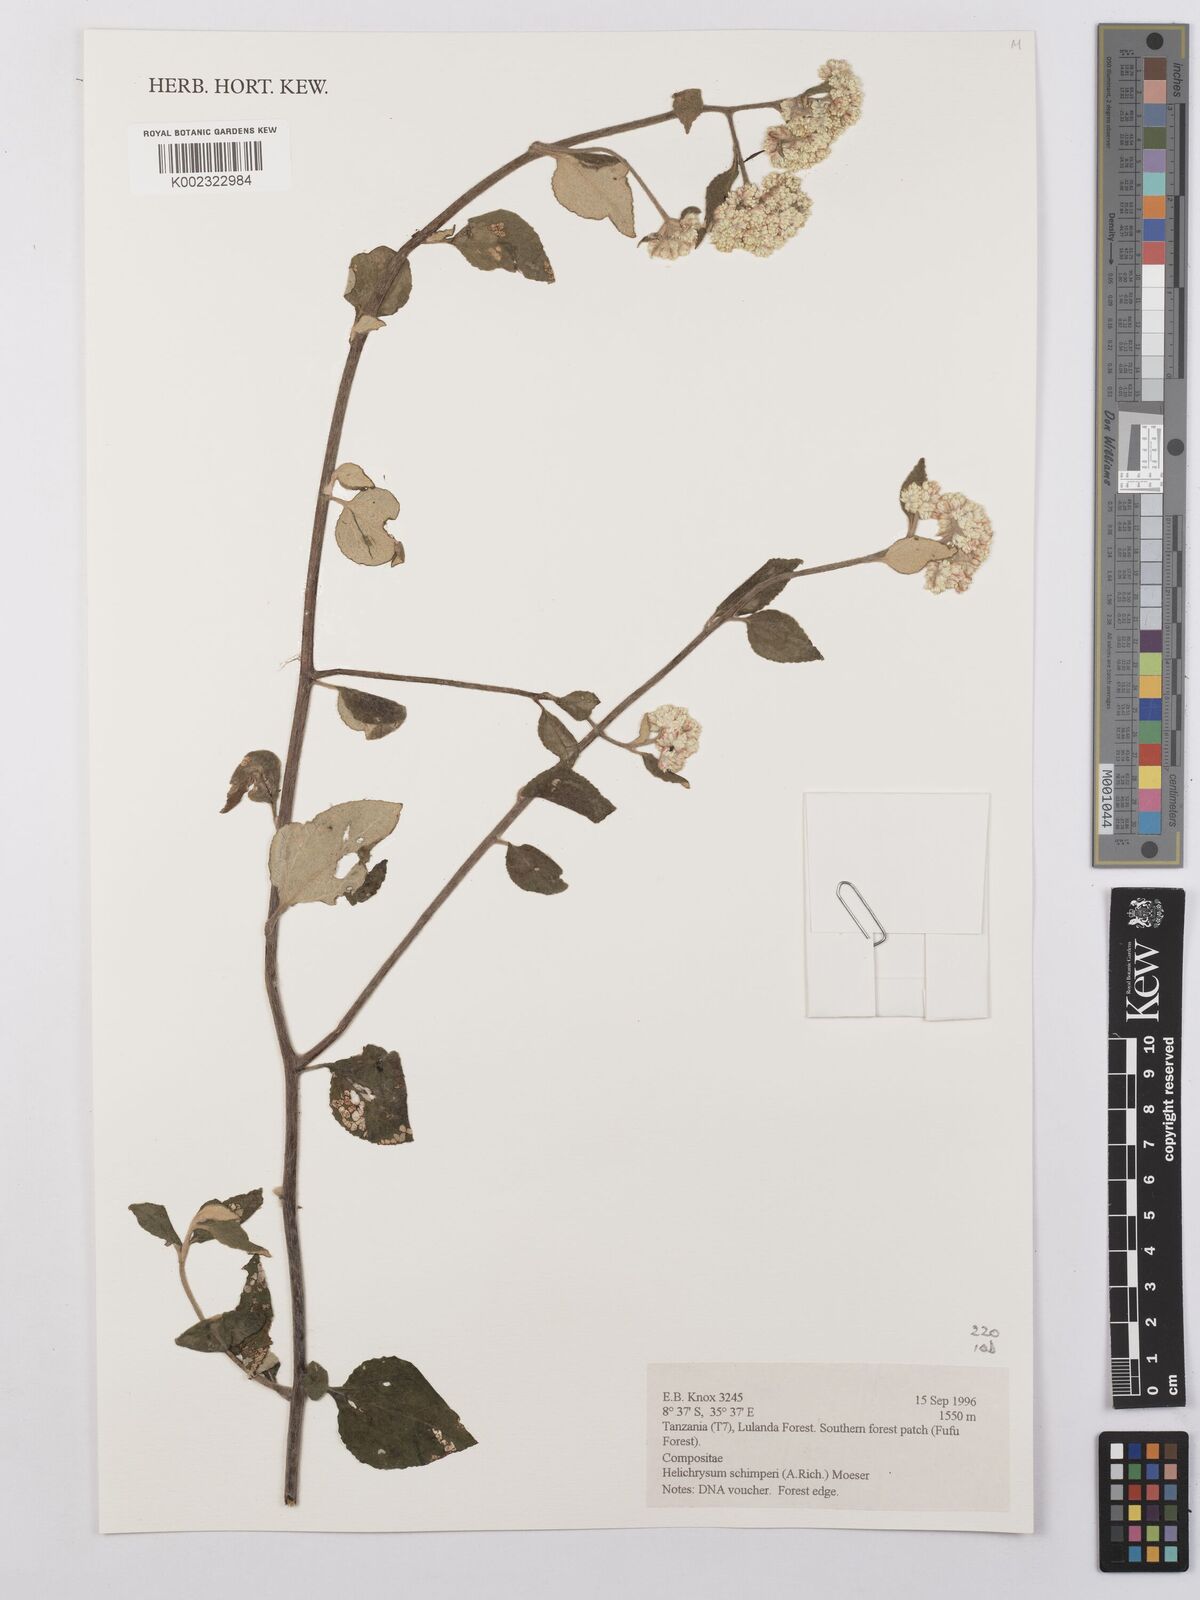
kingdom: Plantae
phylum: Tracheophyta
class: Magnoliopsida
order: Asterales
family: Asteraceae
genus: Helichrysum
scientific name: Helichrysum schimperi
